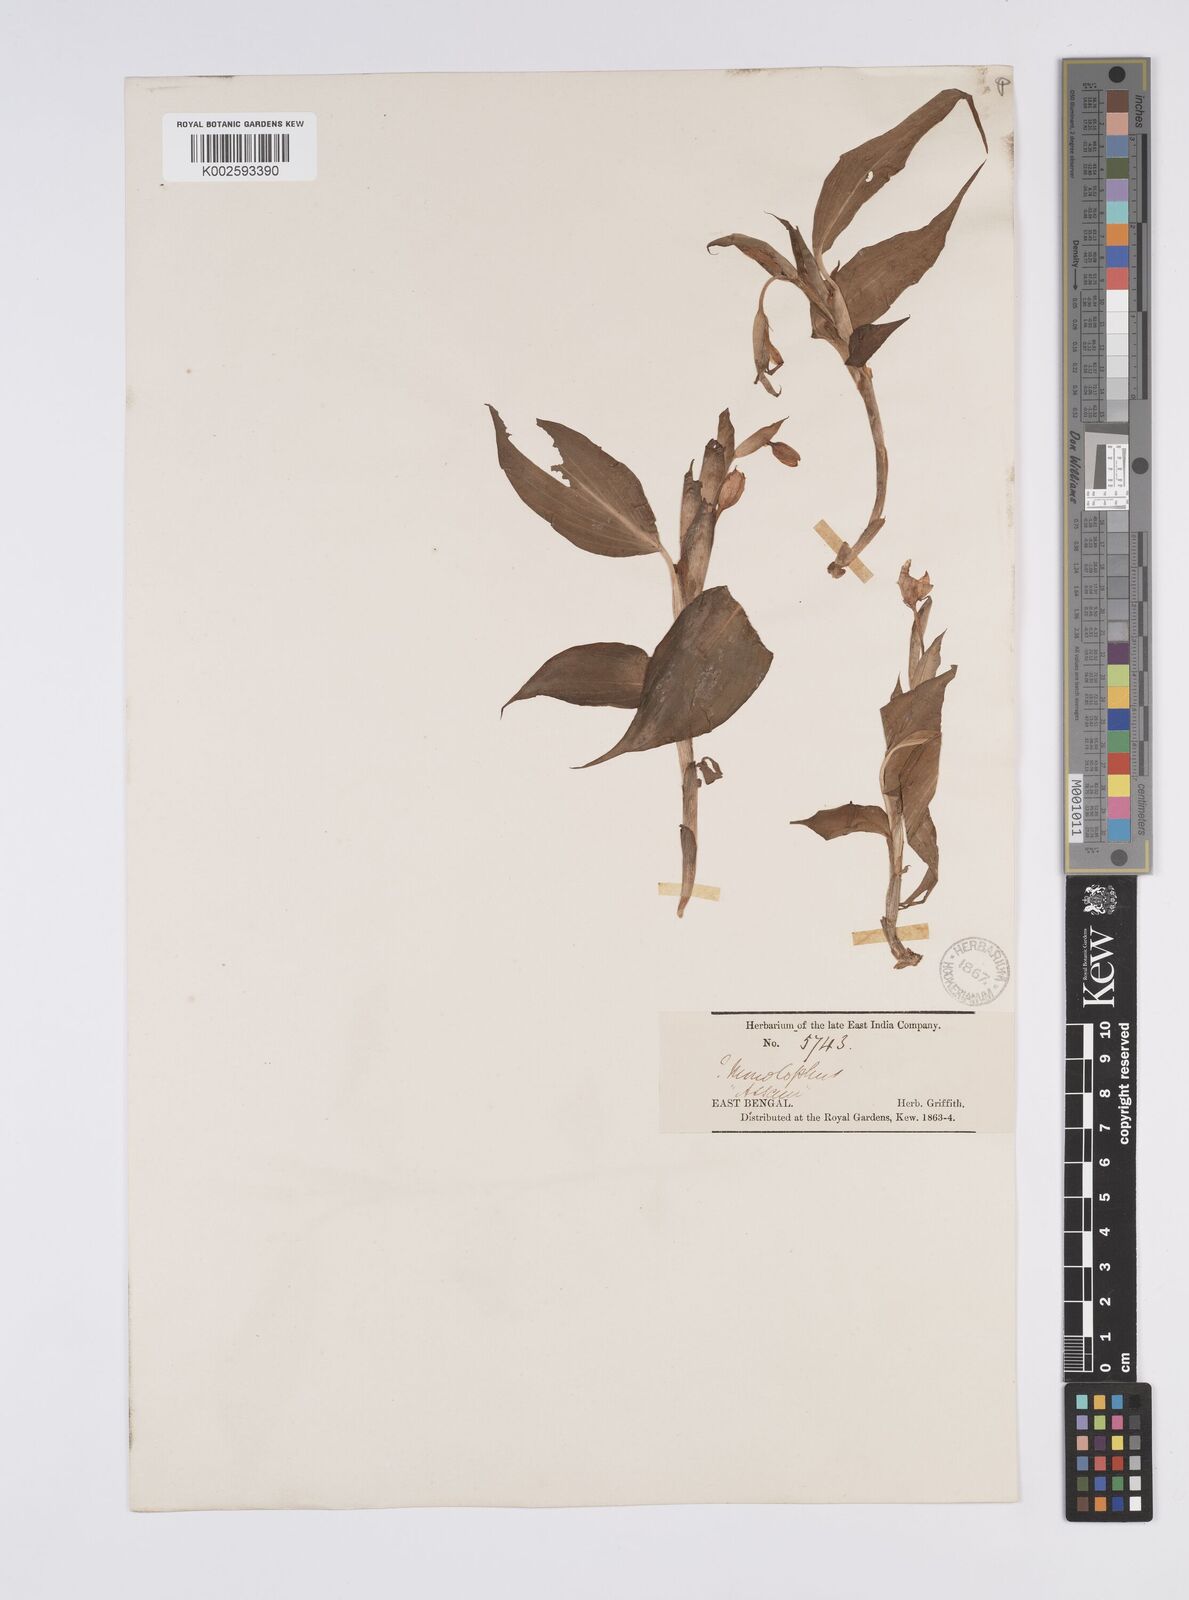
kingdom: Plantae
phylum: Tracheophyta
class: Liliopsida
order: Zingiberales
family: Zingiberaceae
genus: Caulokaempferia
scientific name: Caulokaempferia secunda
